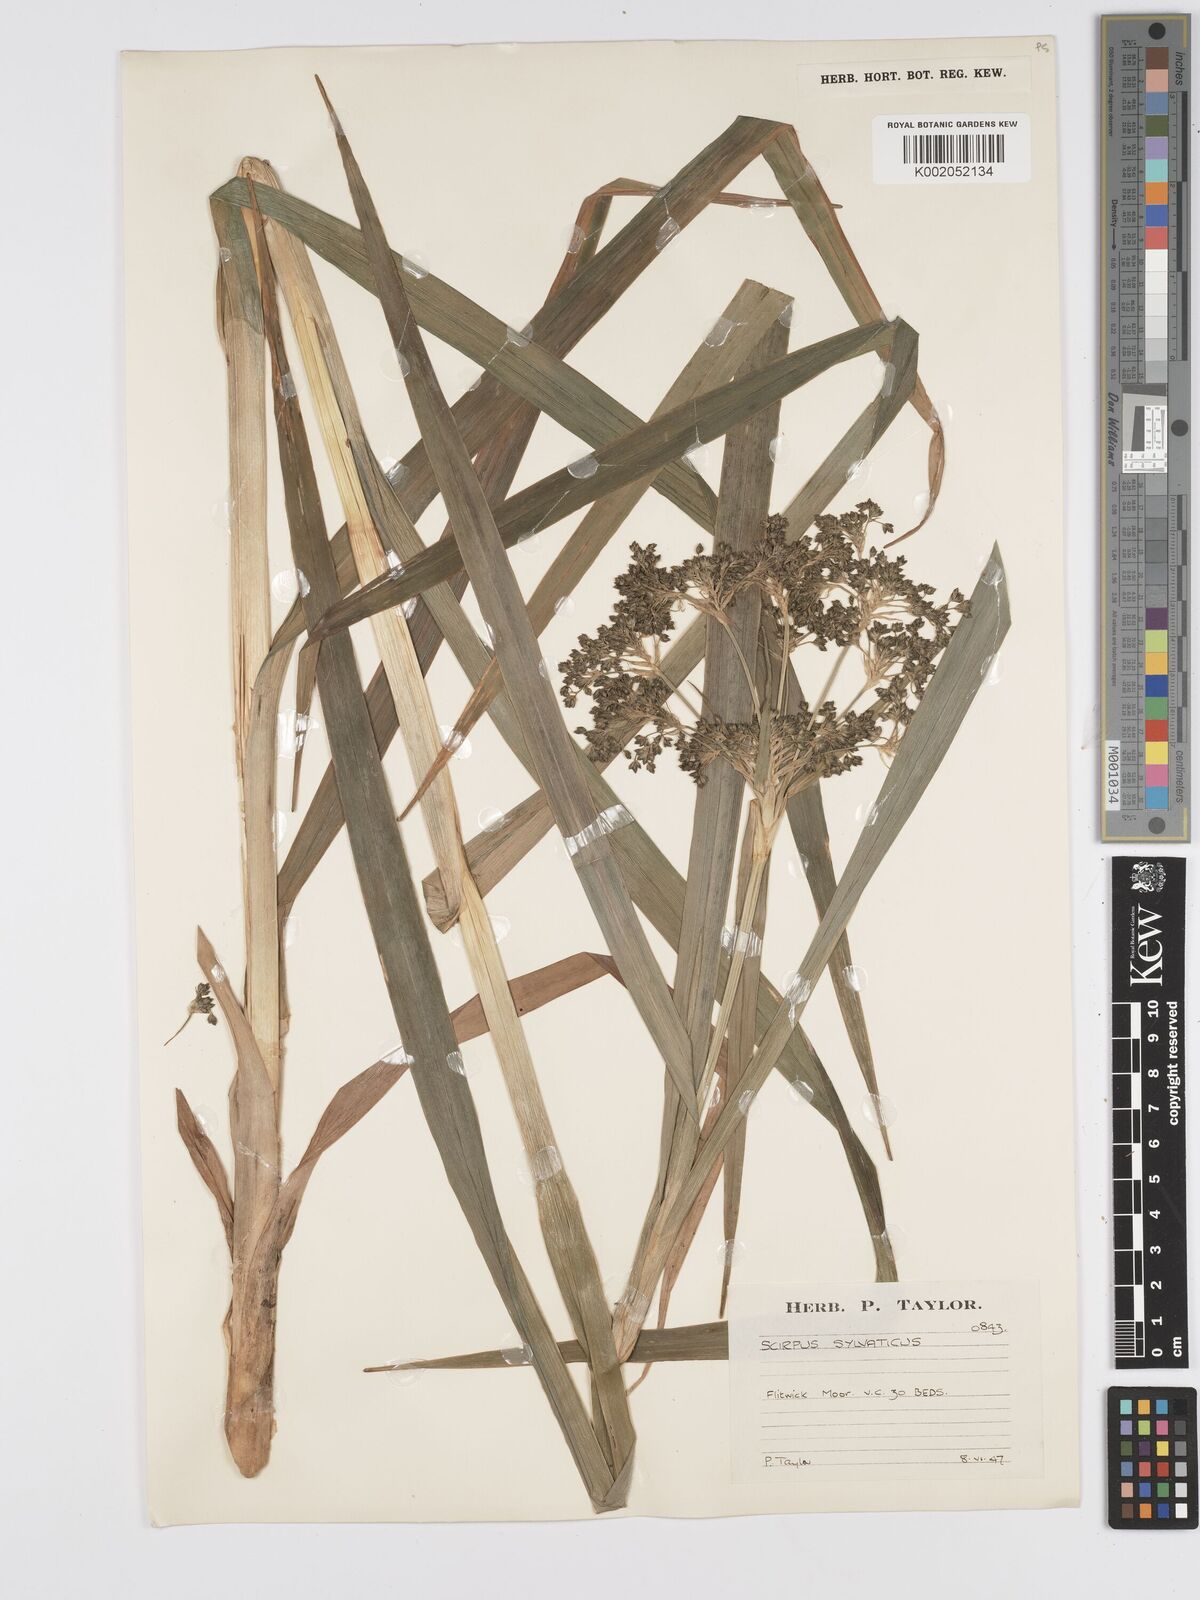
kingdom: Plantae
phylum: Tracheophyta
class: Liliopsida
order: Poales
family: Cyperaceae
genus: Scirpus
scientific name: Scirpus sylvaticus
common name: Wood club-rush
